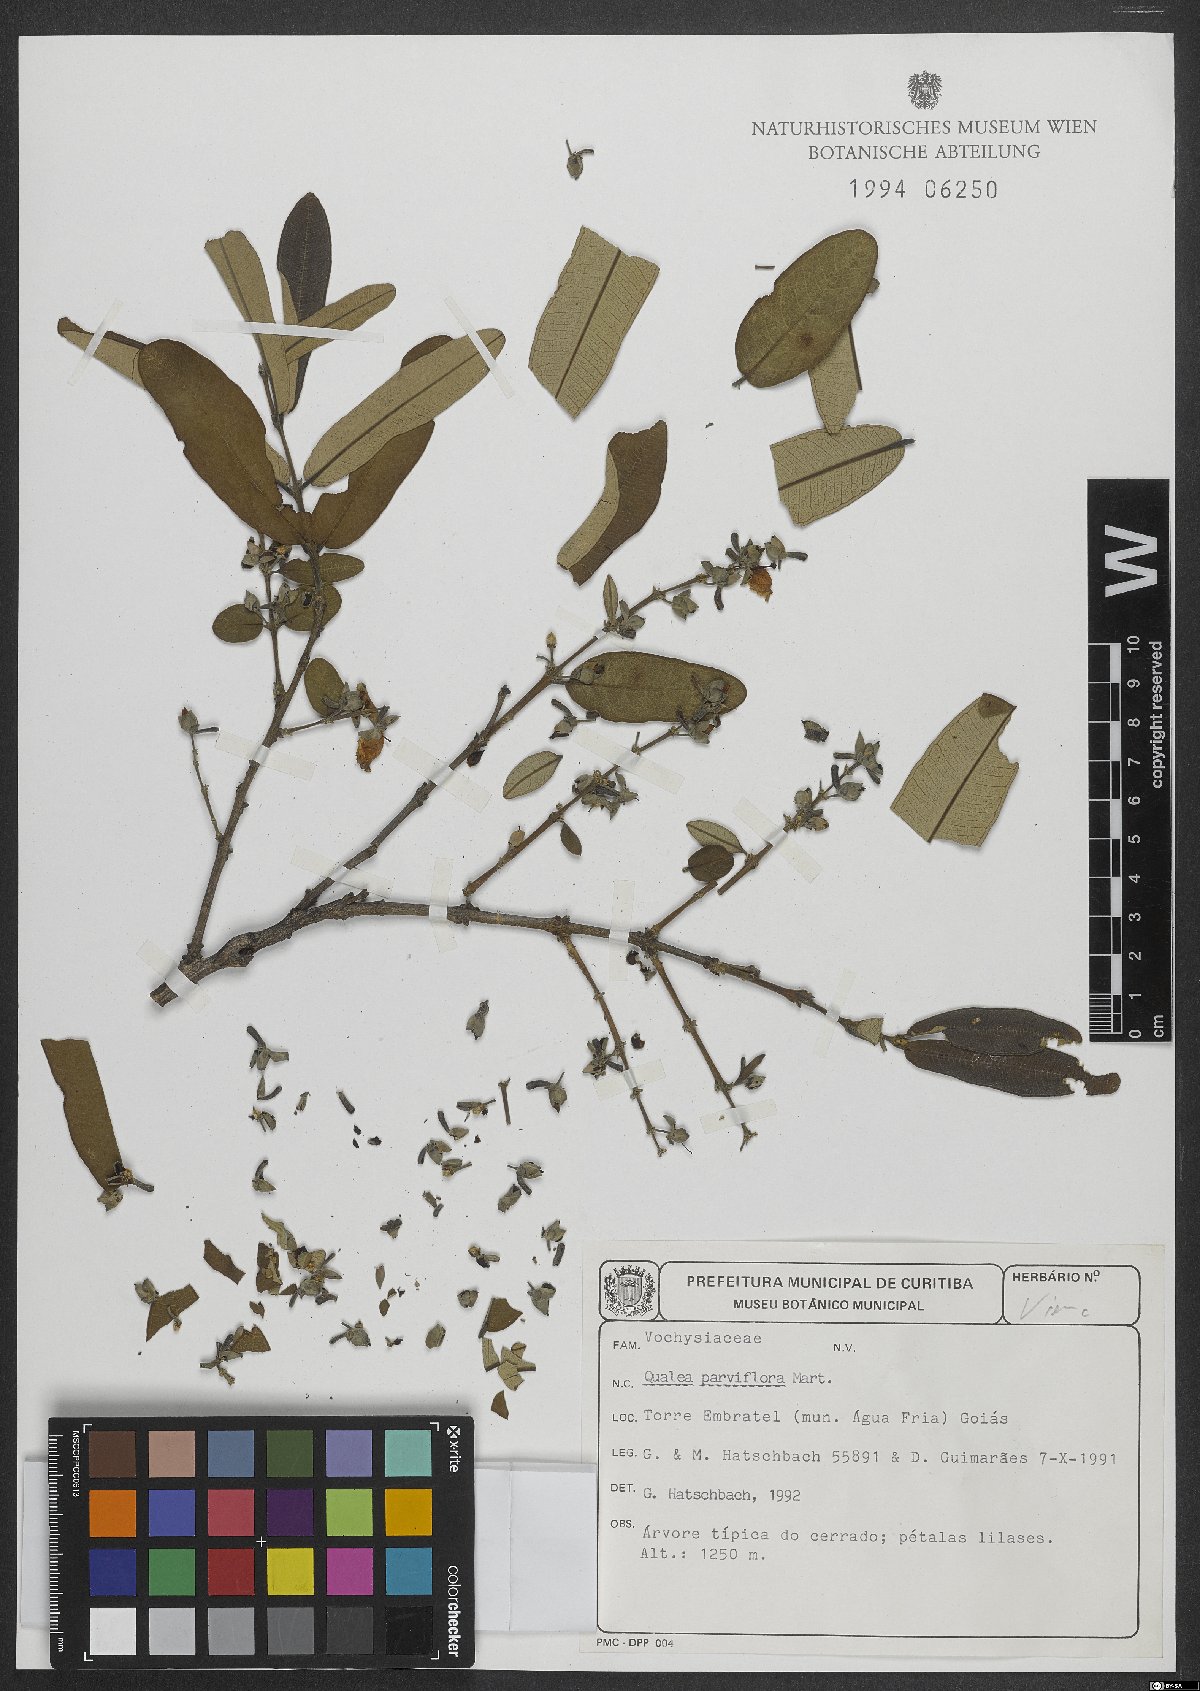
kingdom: Plantae
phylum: Tracheophyta
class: Magnoliopsida
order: Myrtales
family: Vochysiaceae
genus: Qualea
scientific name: Qualea parviflora
